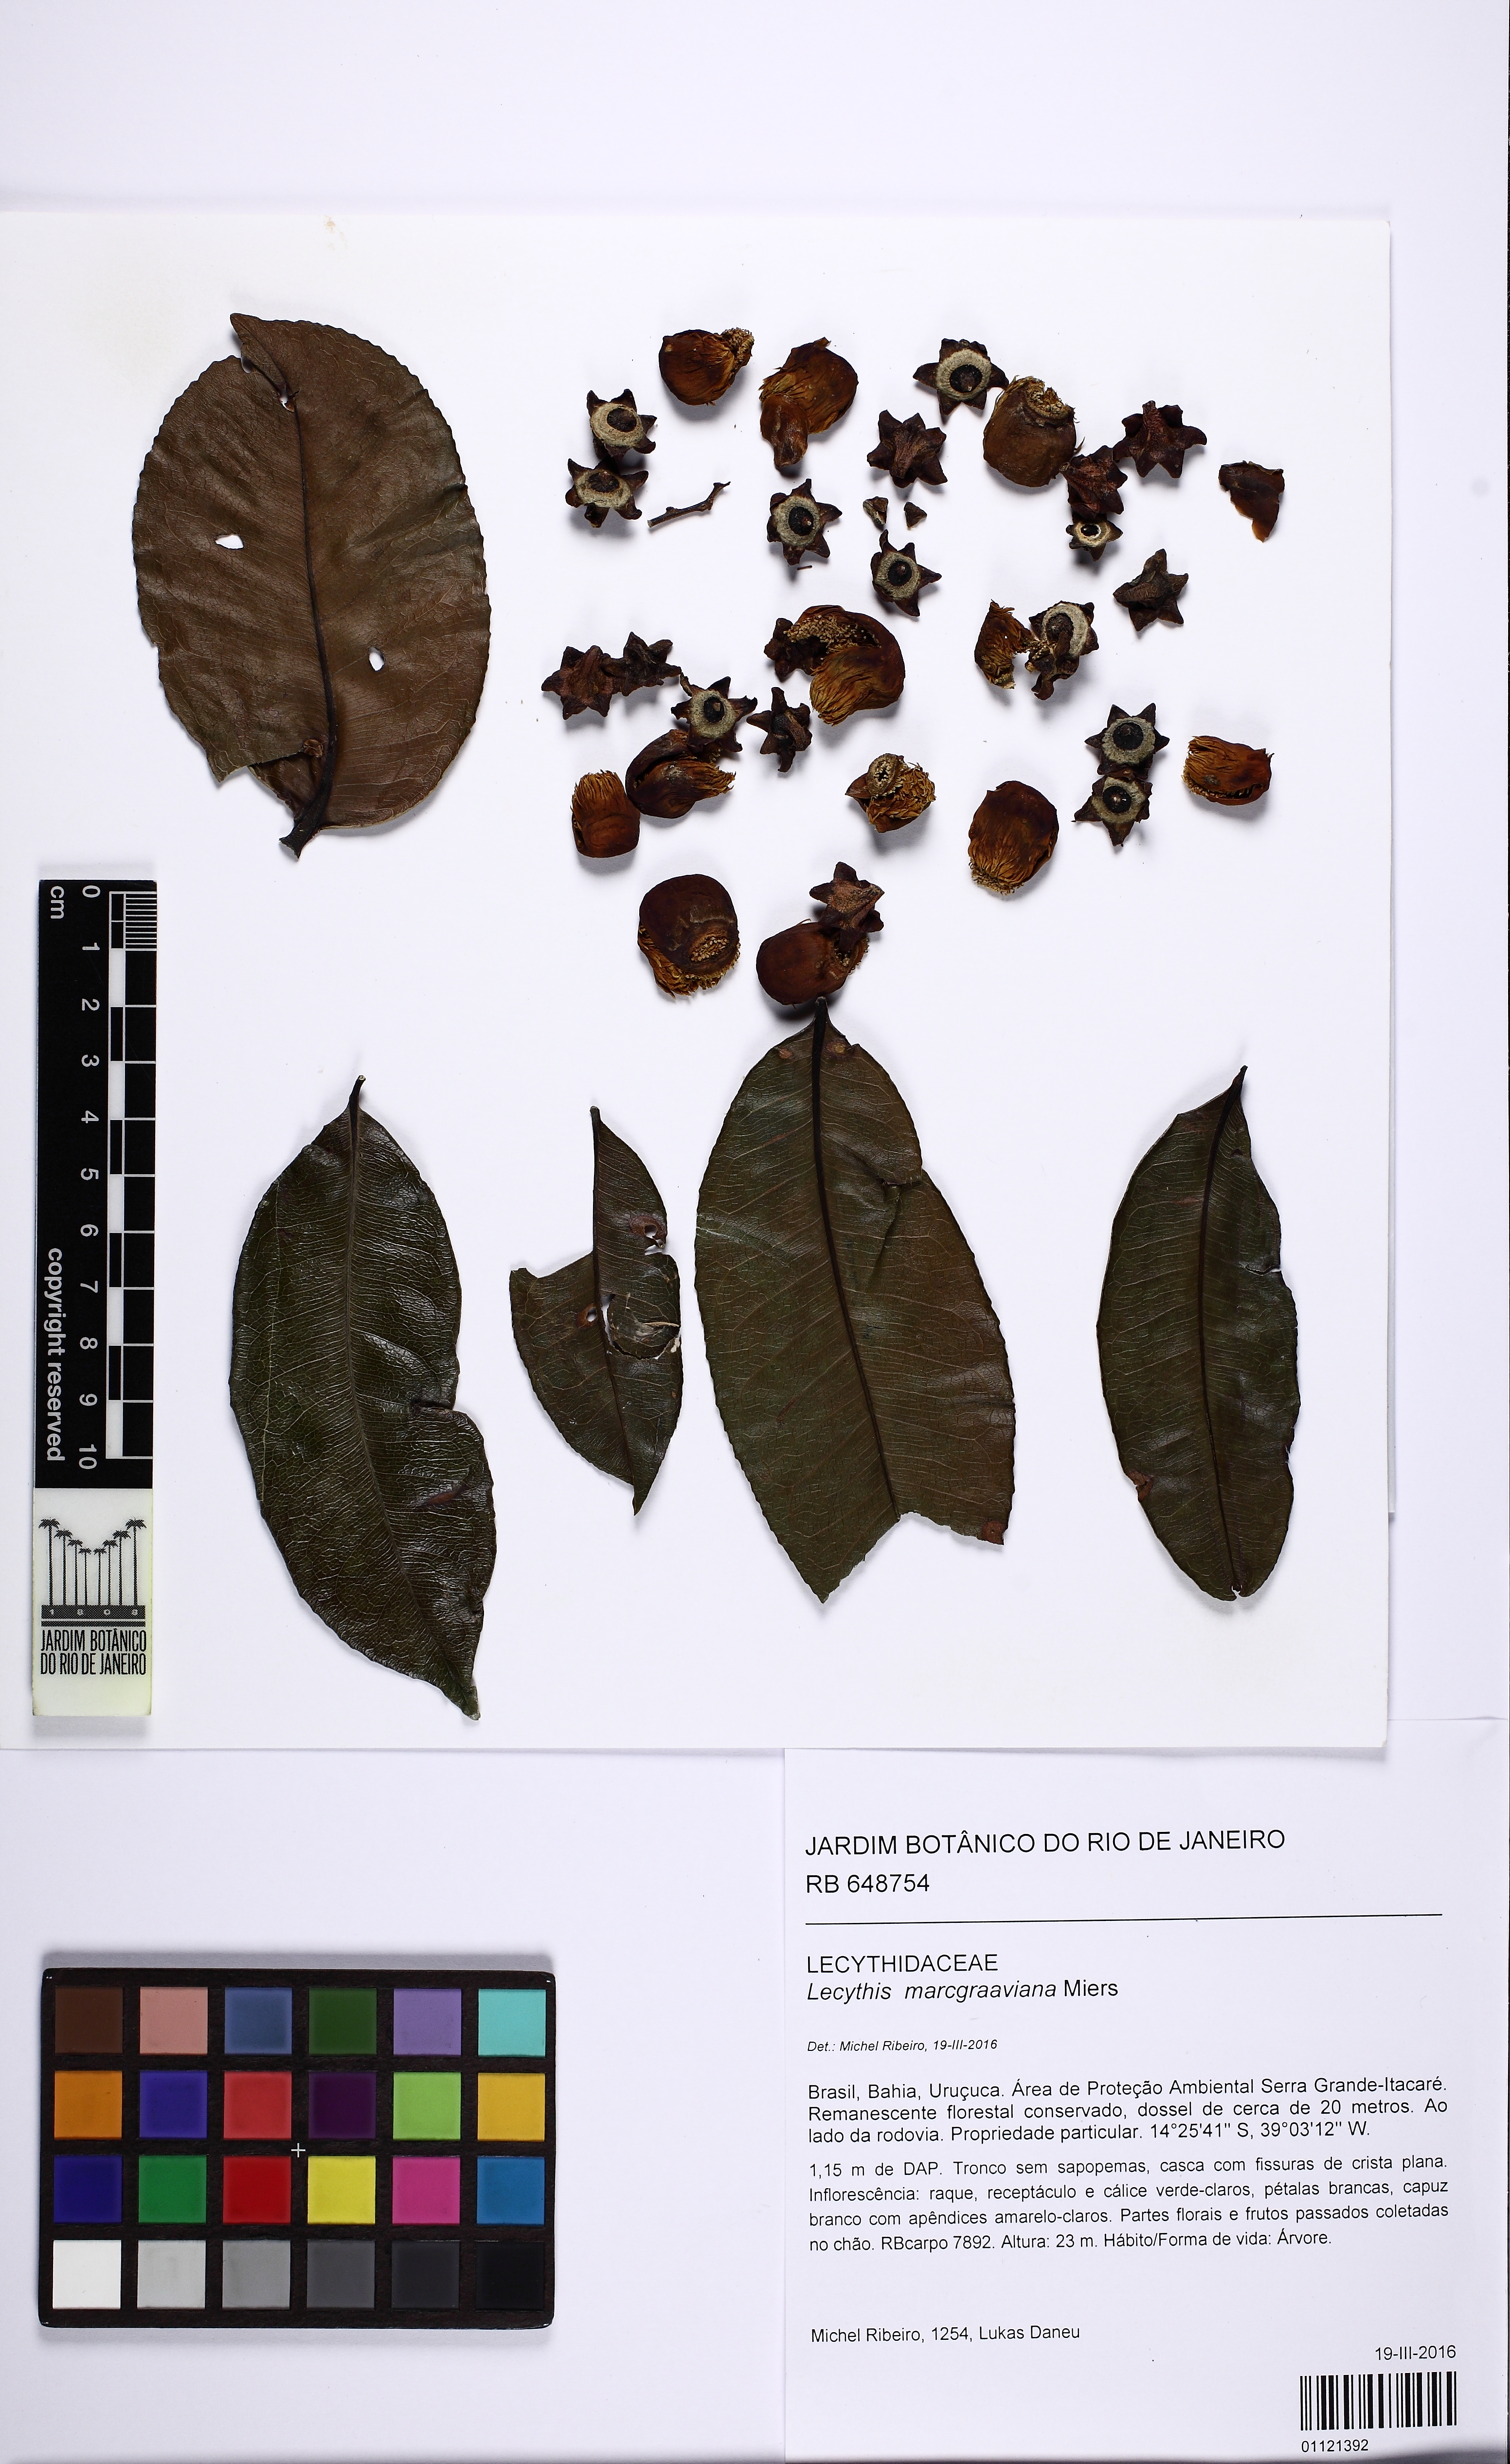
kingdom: Plantae
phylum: Tracheophyta
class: Magnoliopsida
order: Ericales
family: Lecythidaceae
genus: Lecythis
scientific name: Lecythis marcgraaviana
